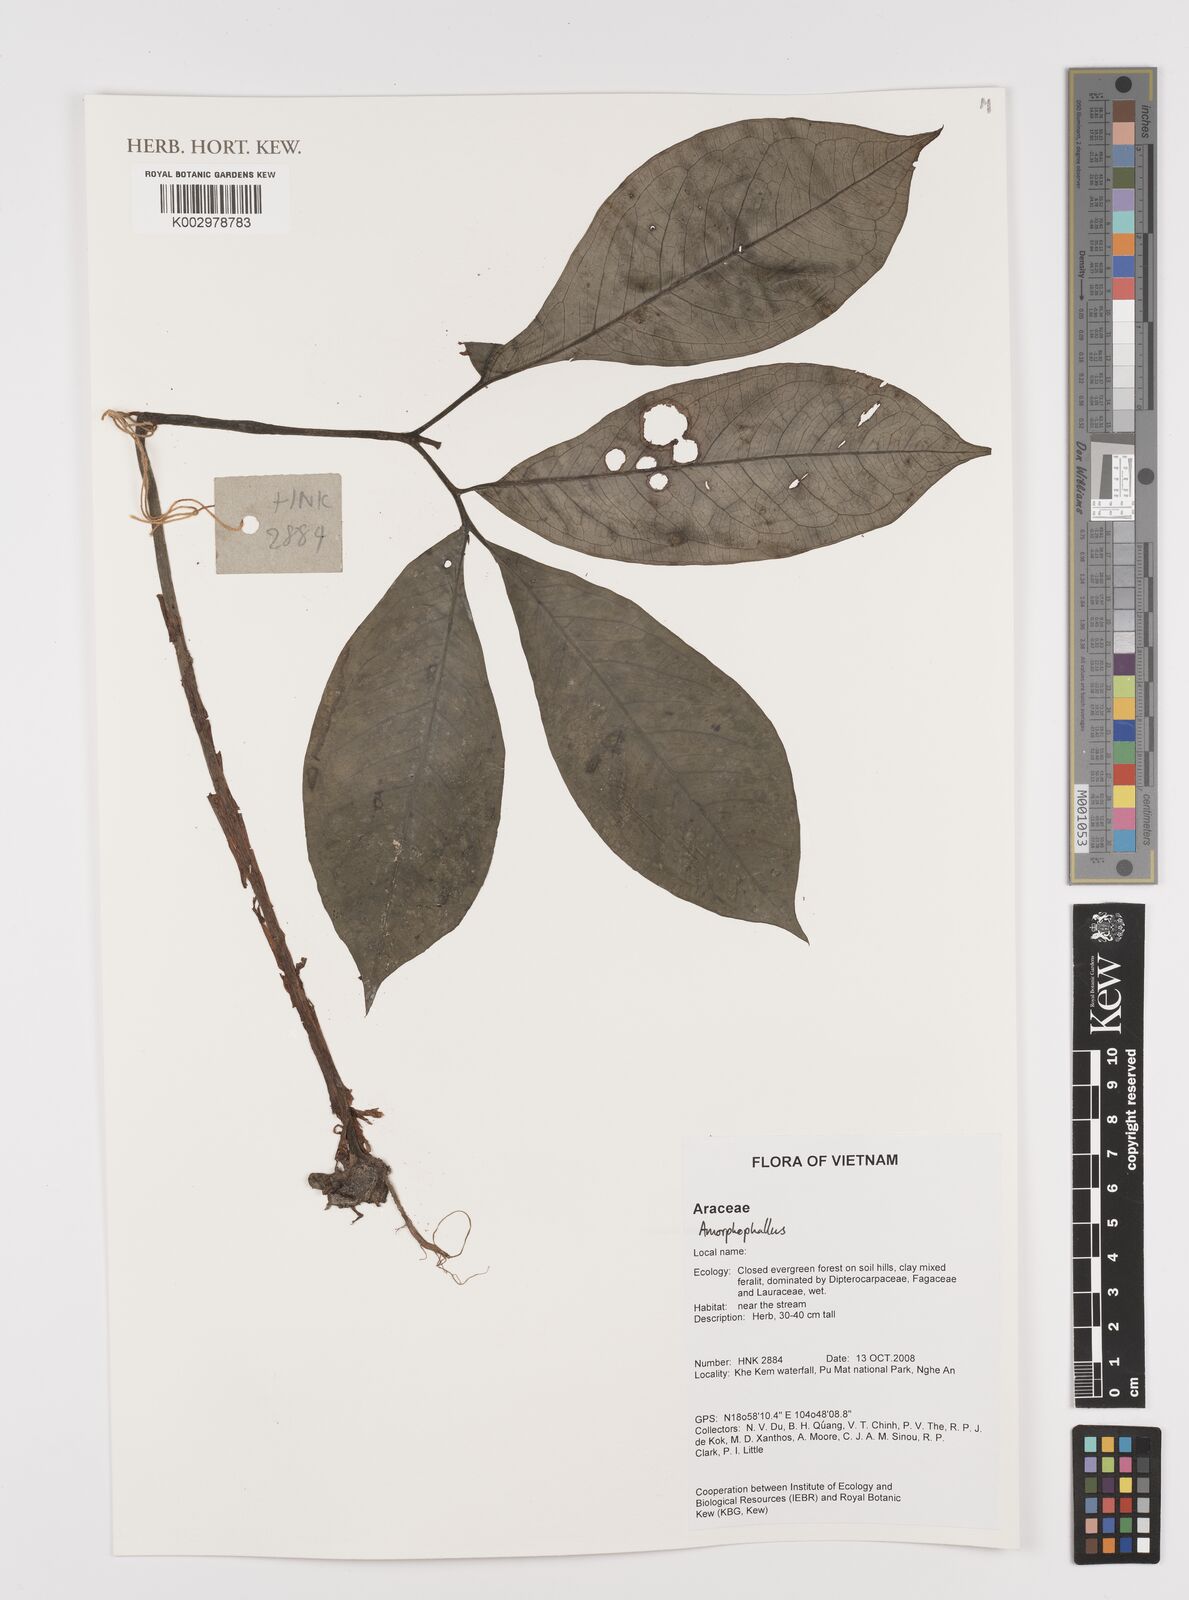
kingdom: Plantae
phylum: Tracheophyta
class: Liliopsida
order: Alismatales
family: Araceae
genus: Amorphophallus
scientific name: Amorphophallus
